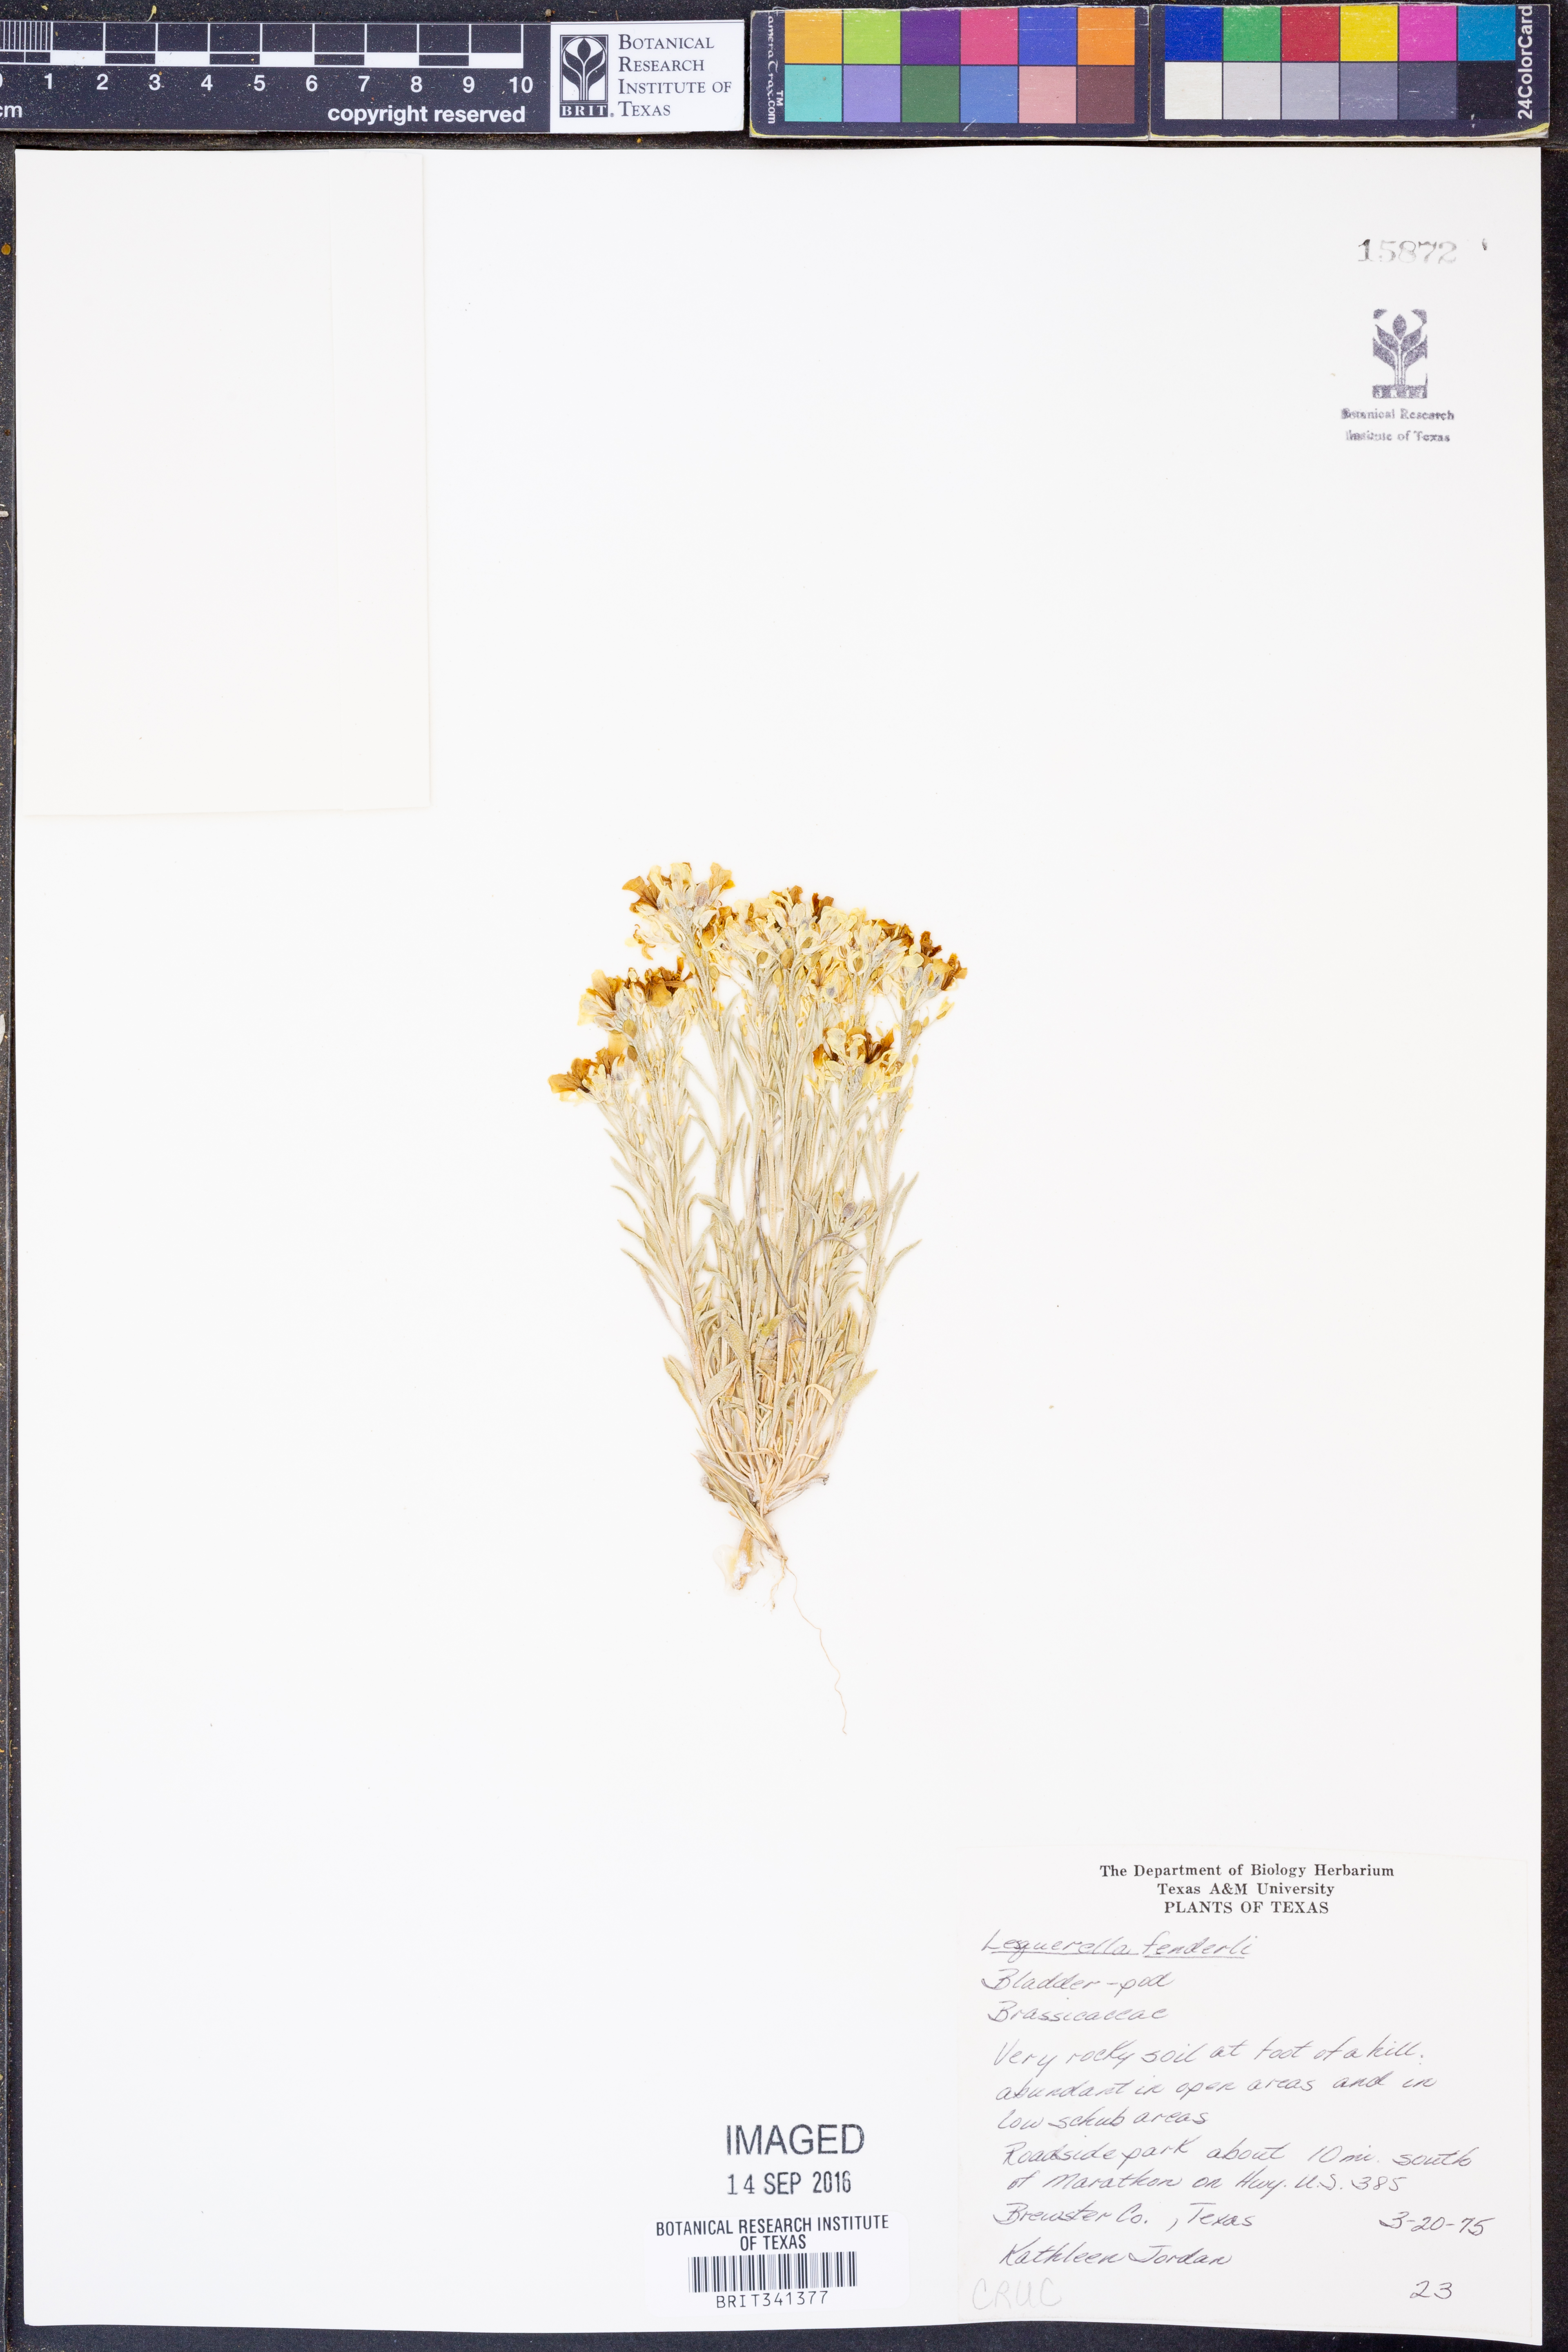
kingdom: Plantae
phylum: Tracheophyta
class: Magnoliopsida
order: Brassicales
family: Brassicaceae
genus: Physaria
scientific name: Physaria fendleri
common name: Fendler's bladderpod
